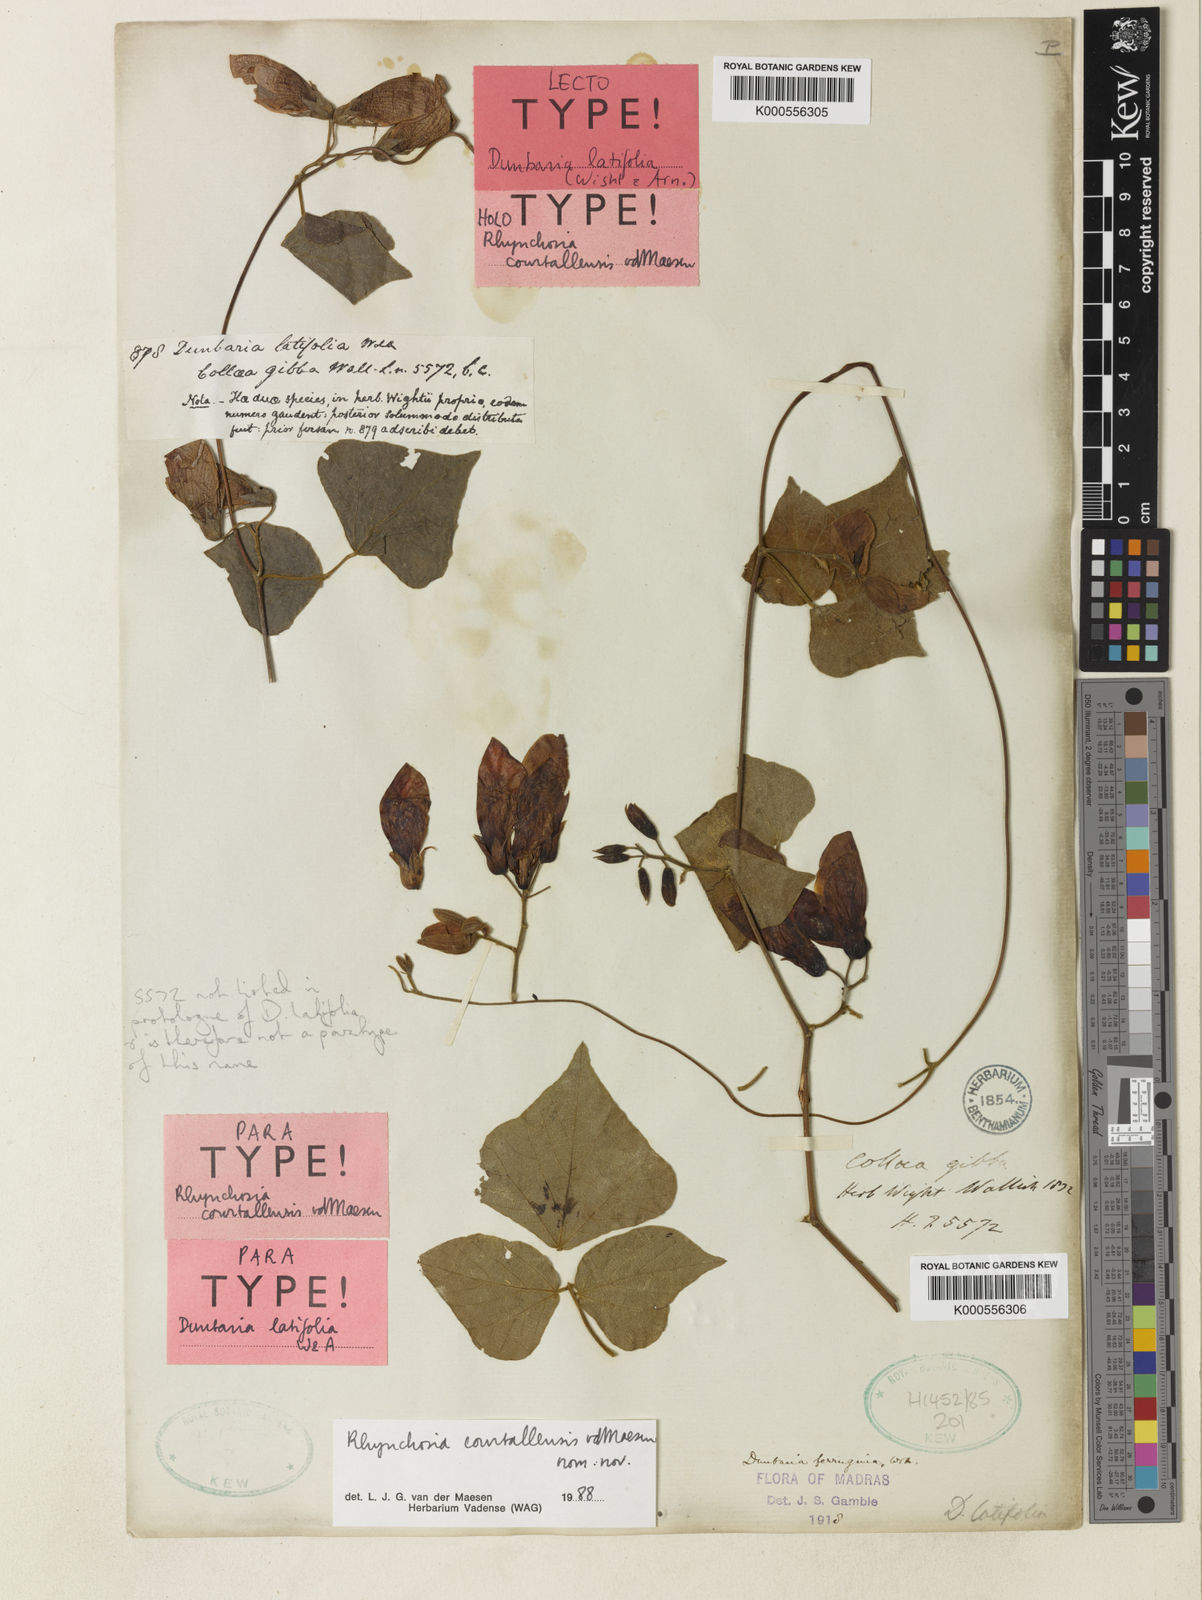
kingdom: Plantae
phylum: Tracheophyta
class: Magnoliopsida
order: Fabales
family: Fabaceae
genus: Dunbaria
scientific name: Dunbaria ferruginea
